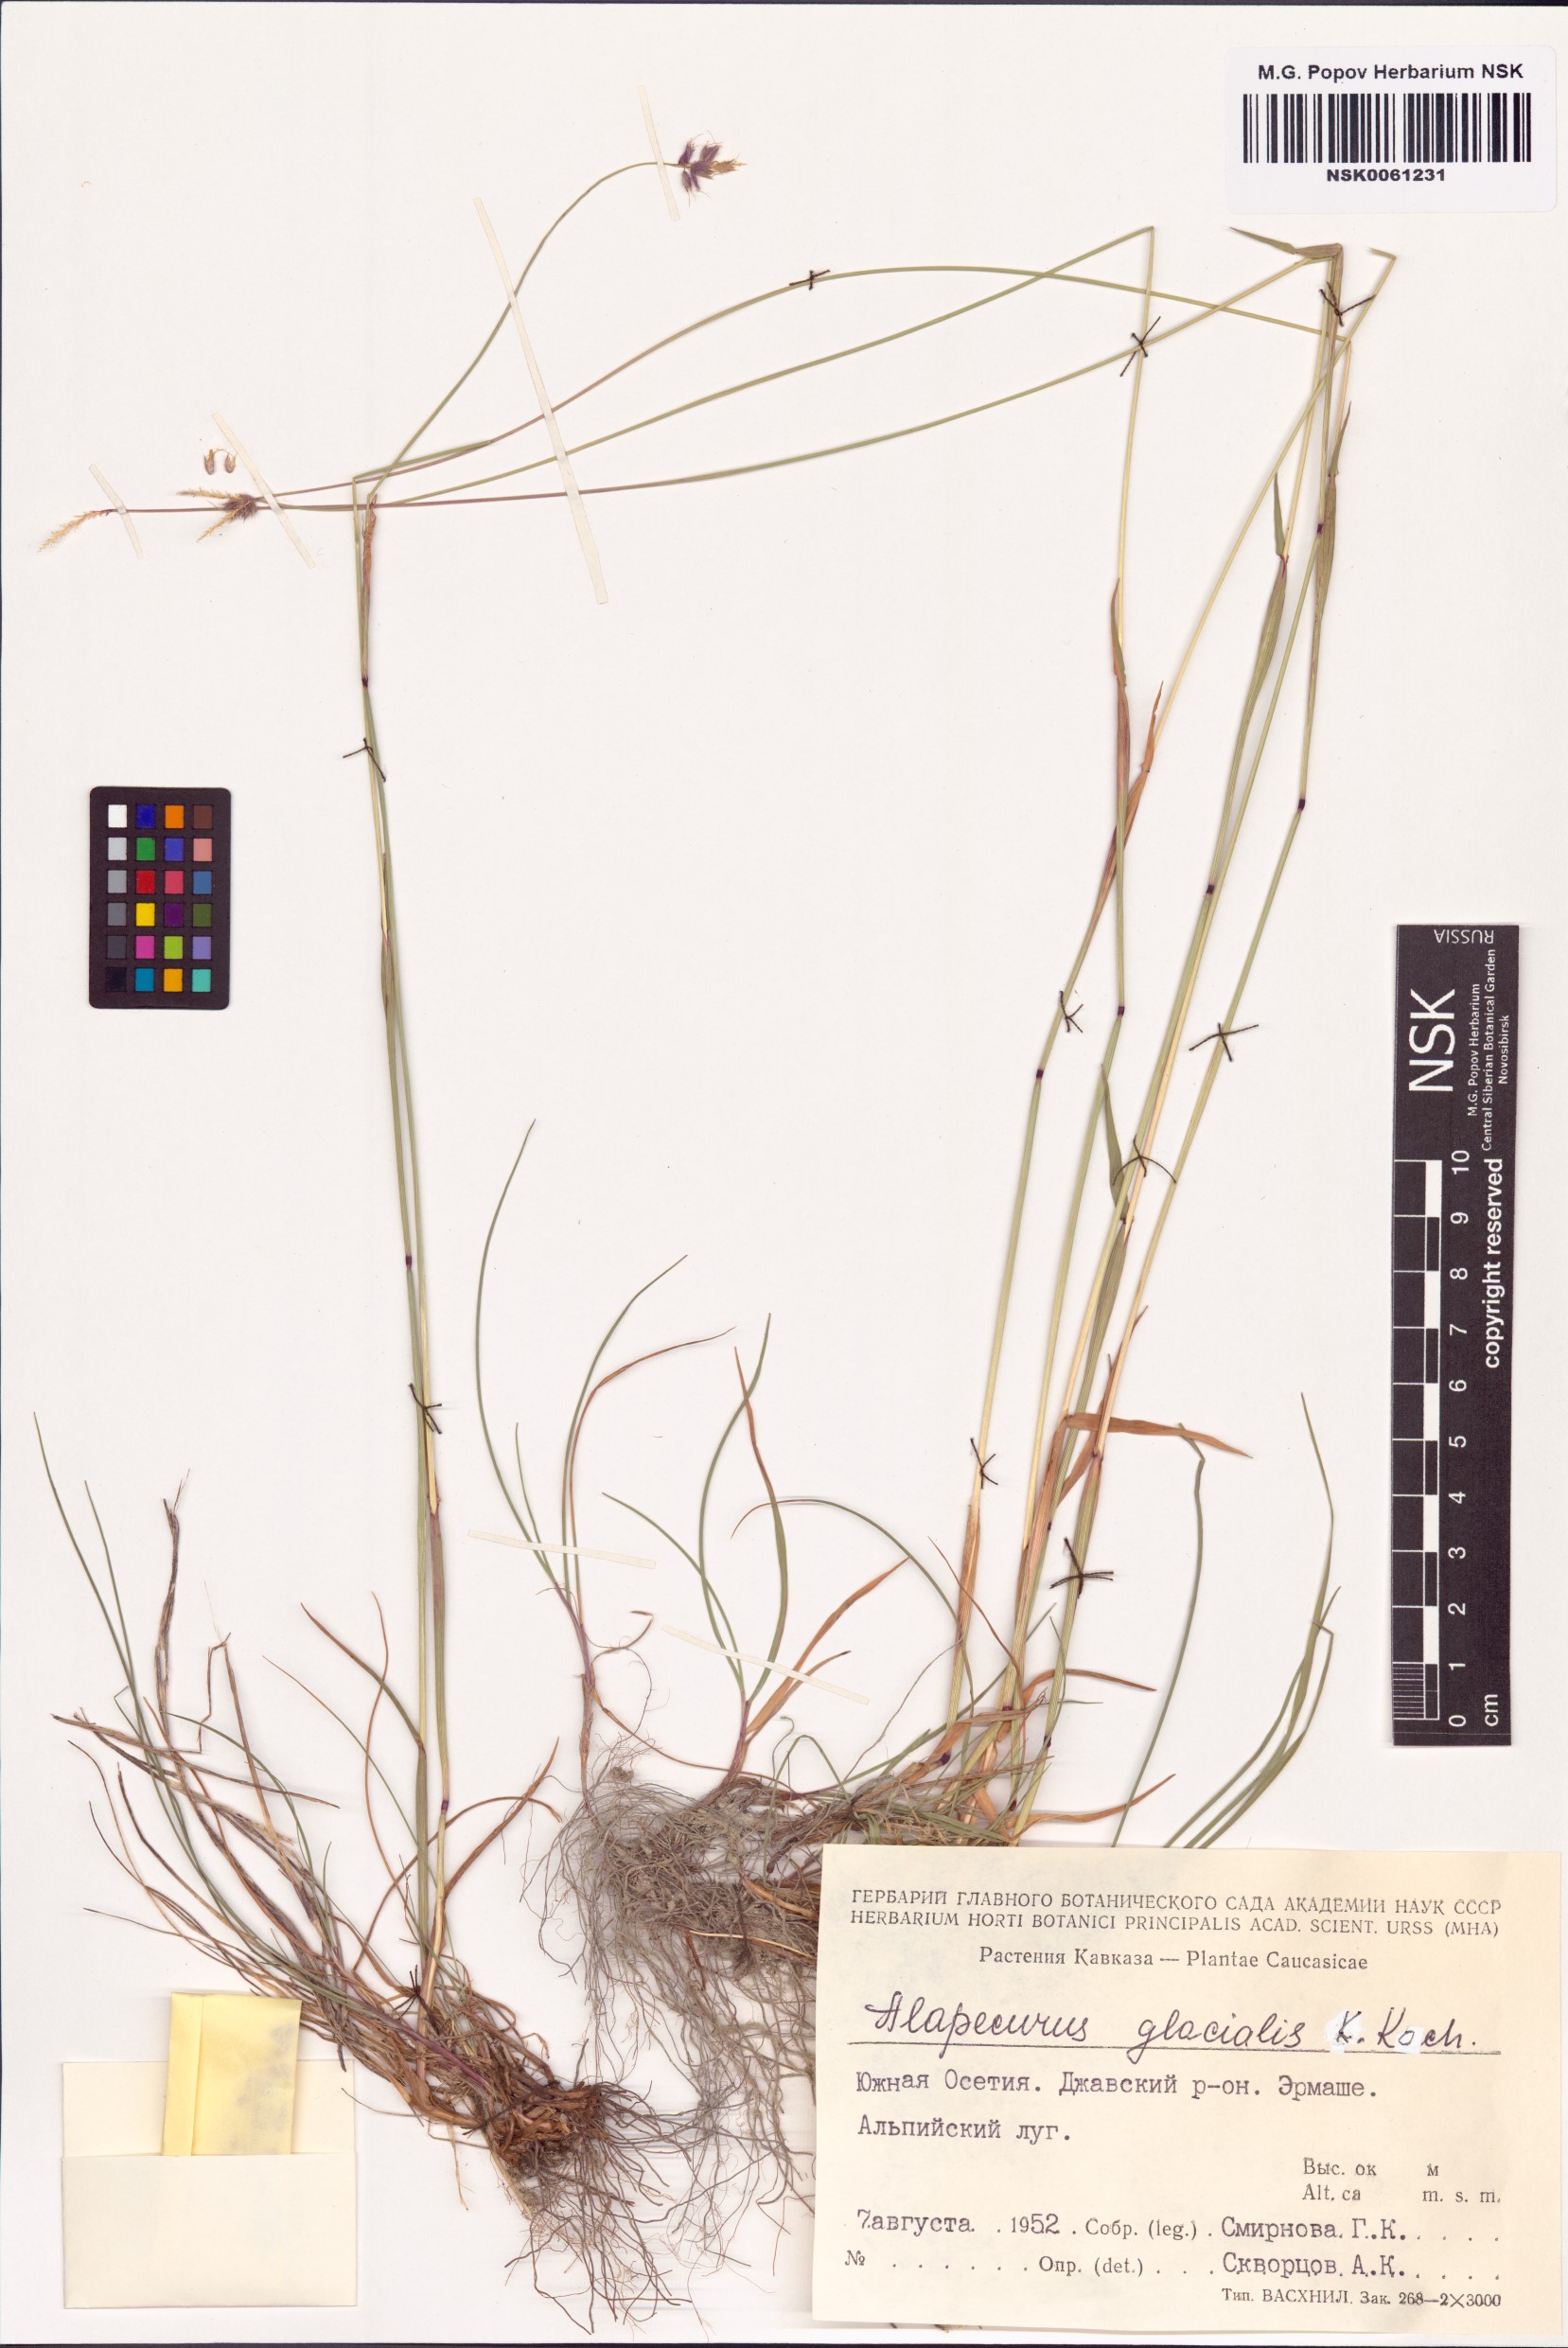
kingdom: Plantae
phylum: Tracheophyta
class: Liliopsida
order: Poales
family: Poaceae
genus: Alopecurus
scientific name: Alopecurus glacialis
